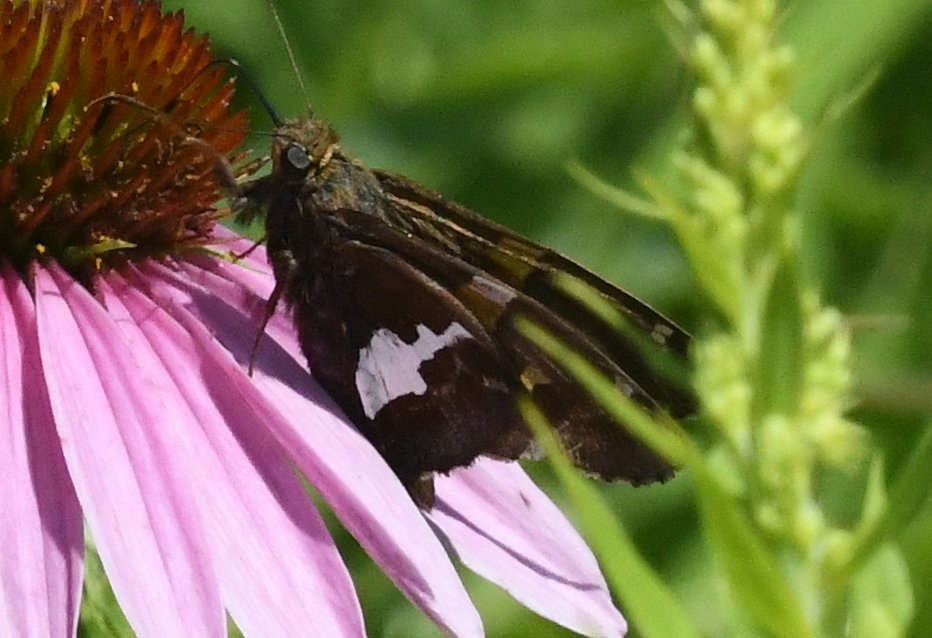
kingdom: Animalia
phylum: Arthropoda
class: Insecta
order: Lepidoptera
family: Hesperiidae
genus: Epargyreus
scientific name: Epargyreus clarus
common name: Silver-spotted Skipper
